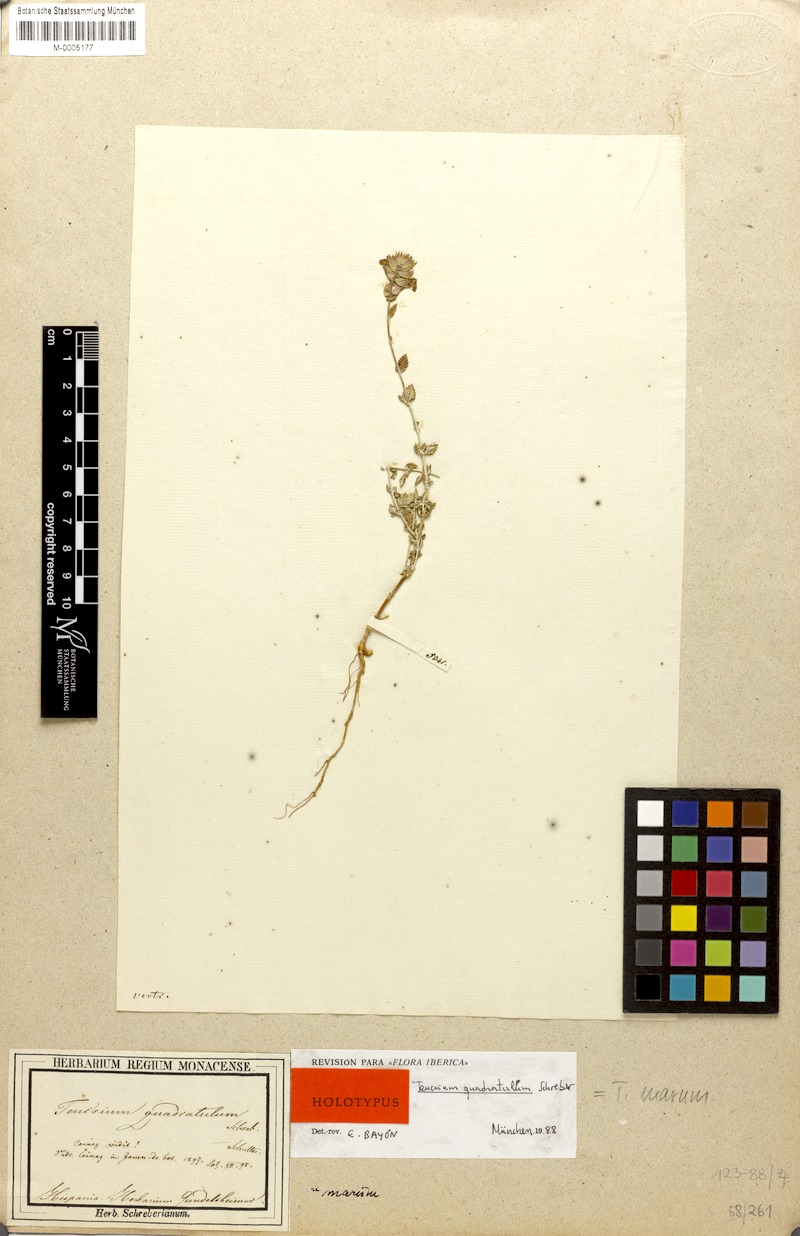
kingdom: Plantae
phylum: Tracheophyta
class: Magnoliopsida
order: Lamiales
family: Lamiaceae
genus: Teucrium
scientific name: Teucrium marum
